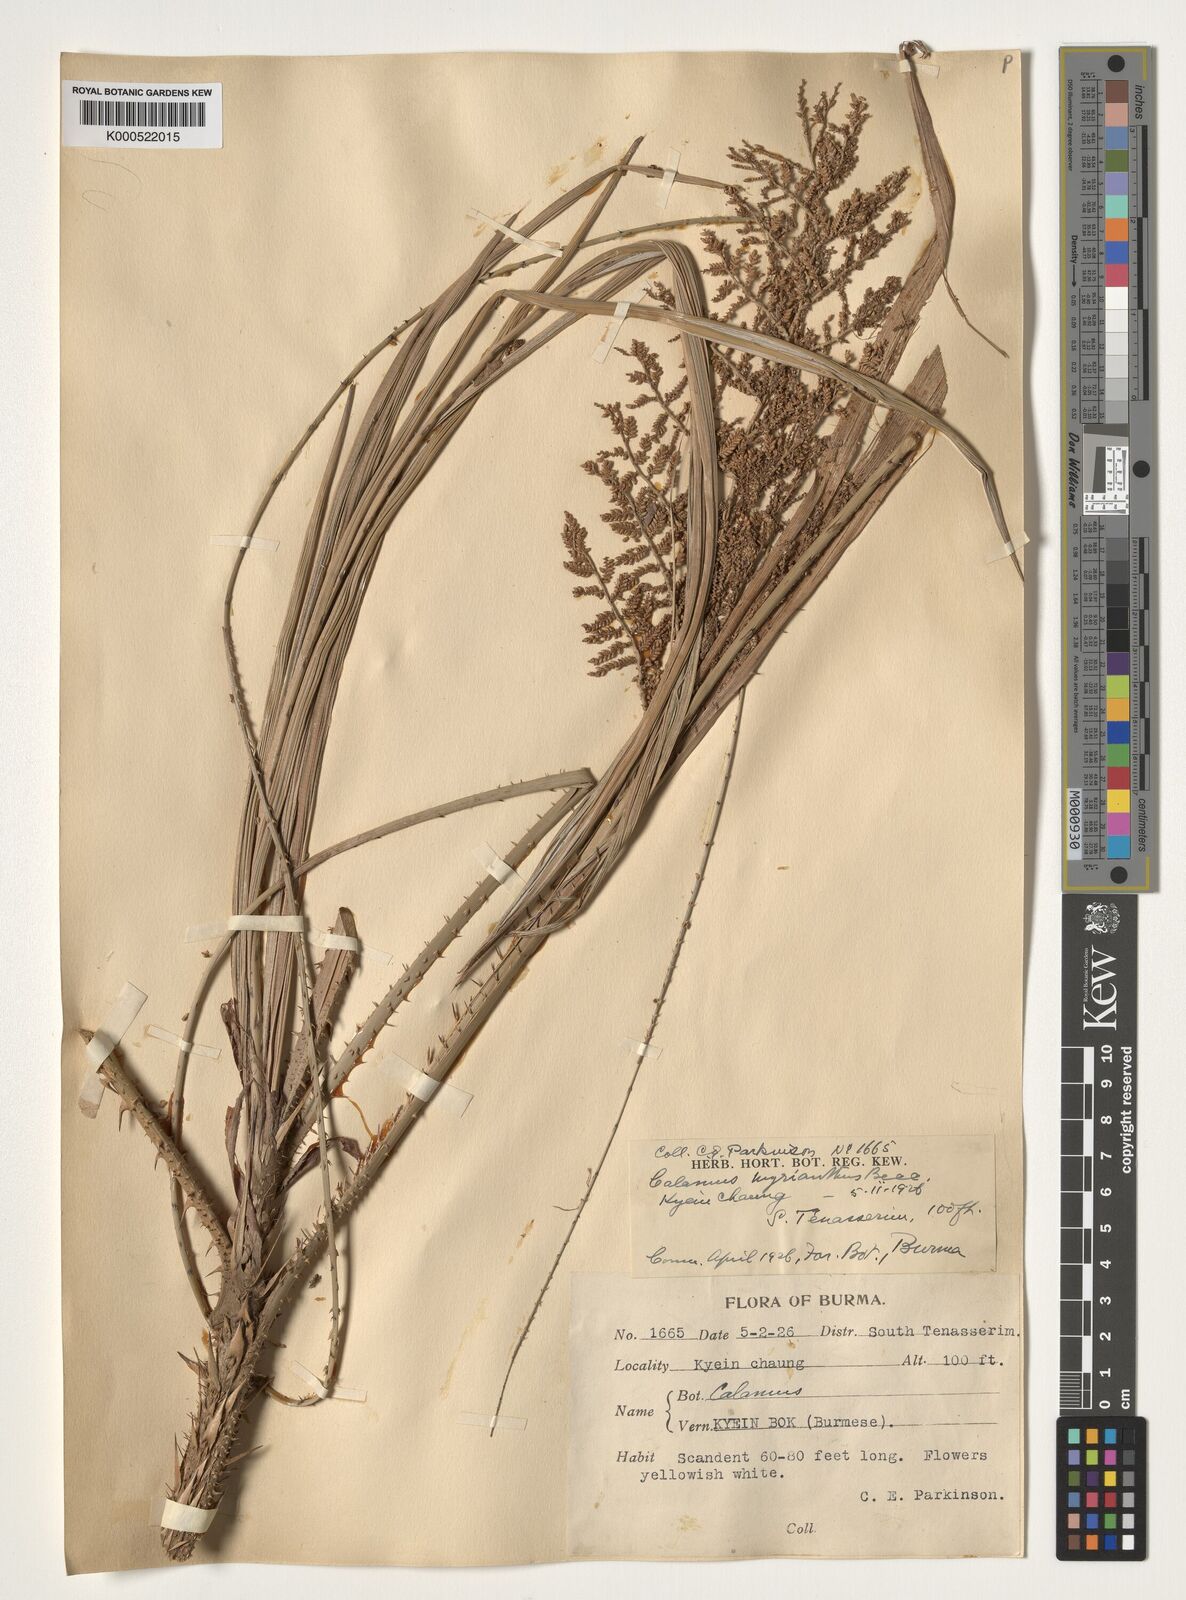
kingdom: Plantae
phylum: Tracheophyta
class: Liliopsida
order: Arecales
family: Arecaceae
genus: Calamus
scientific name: Calamus myrianthus
